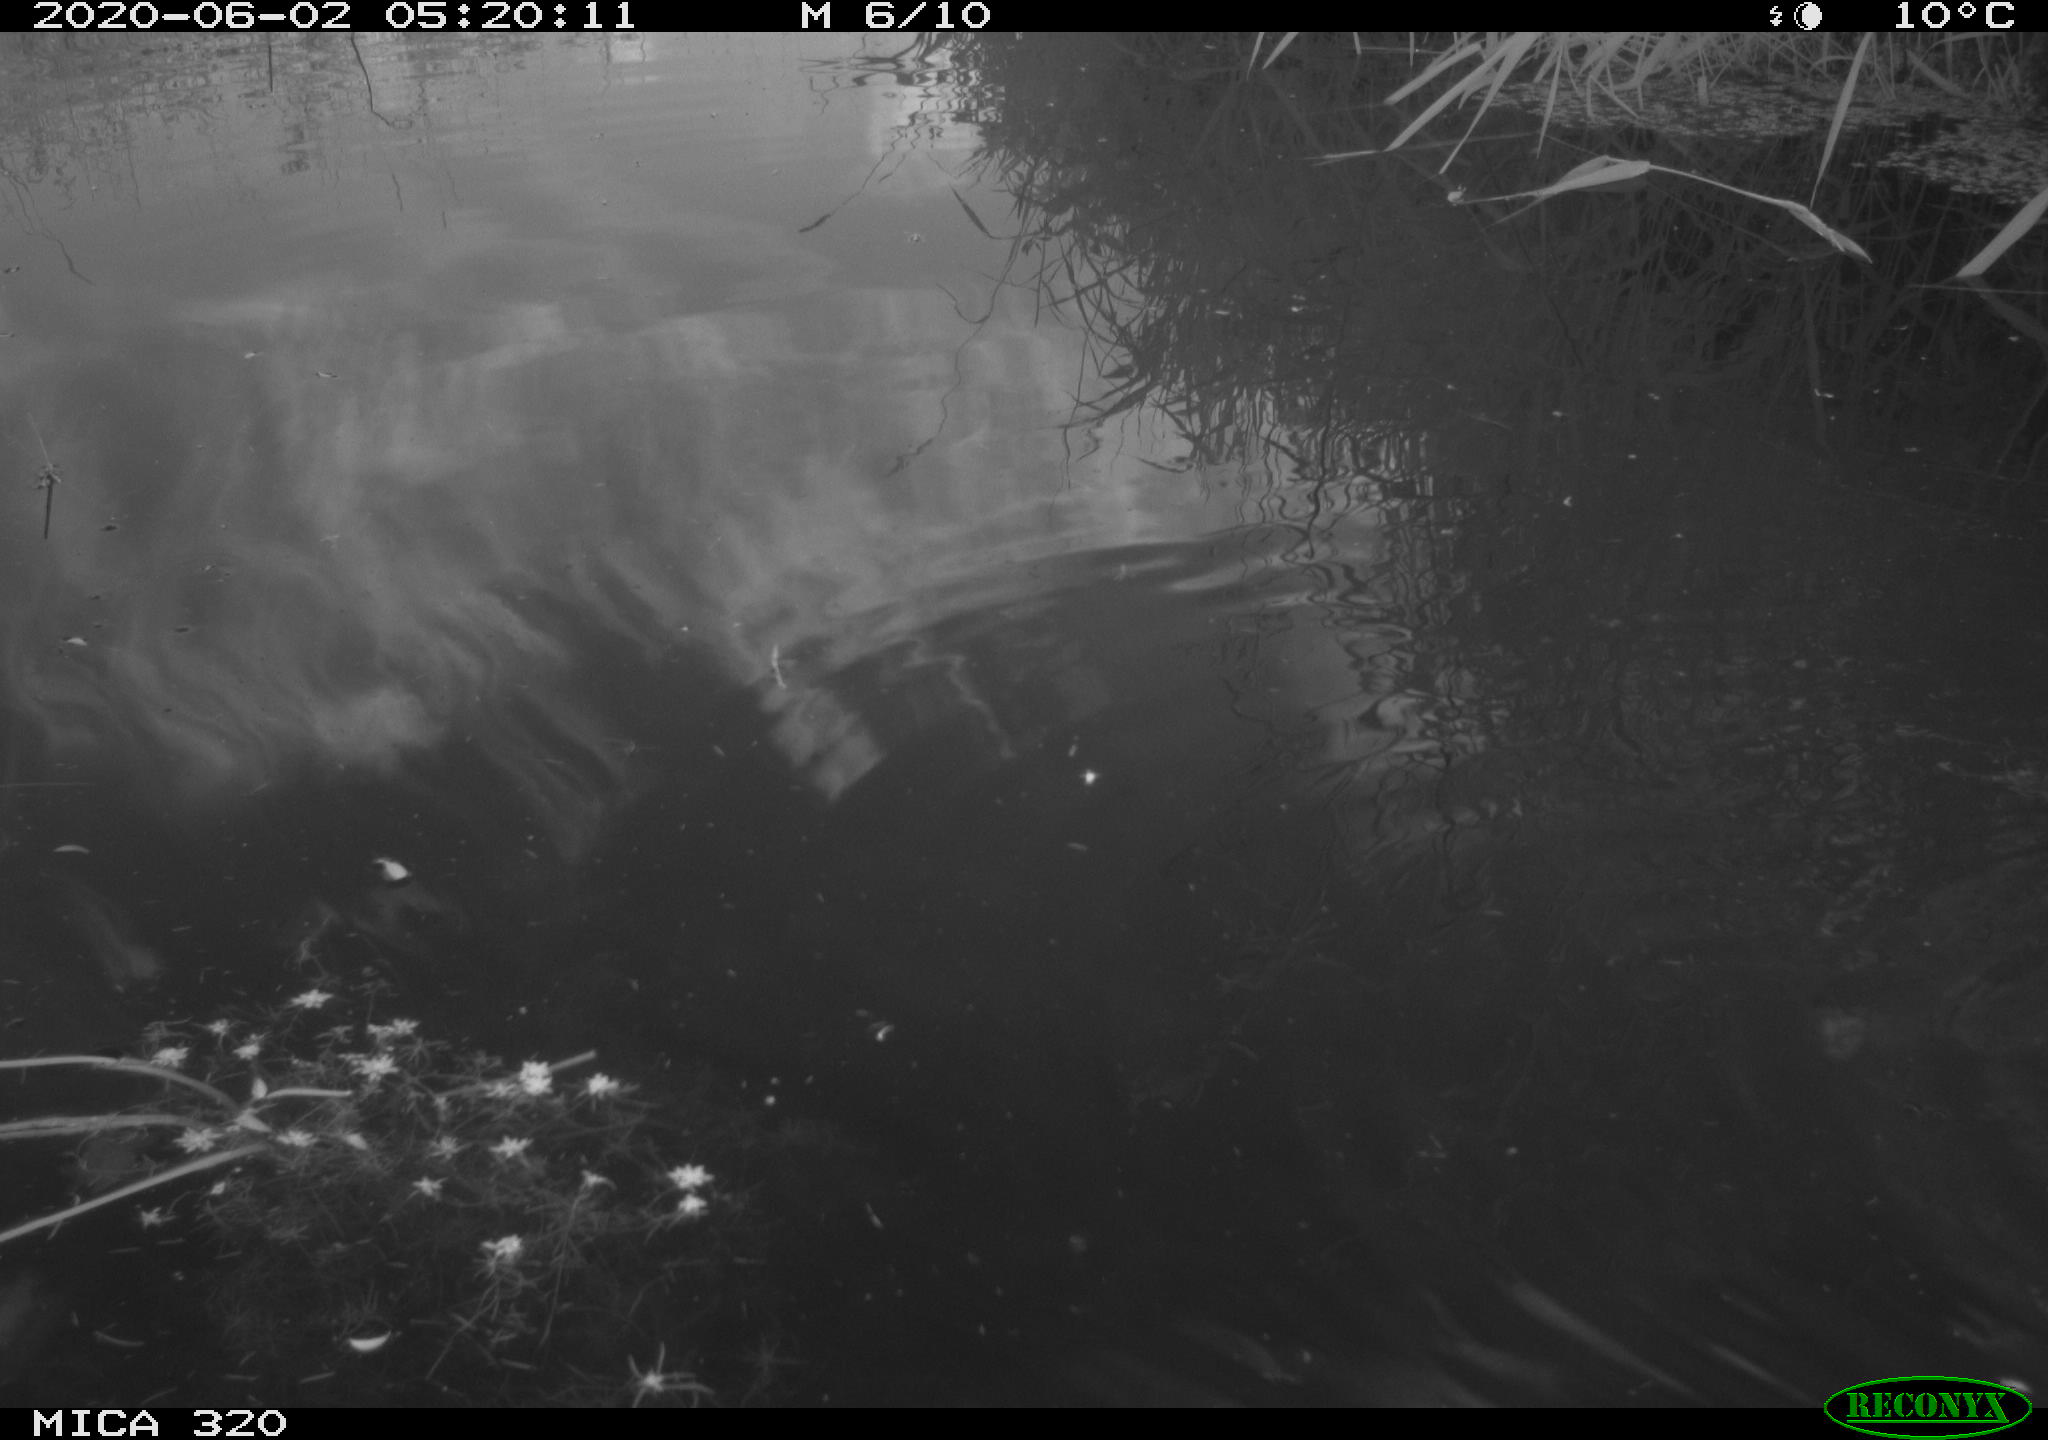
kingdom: Animalia
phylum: Chordata
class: Aves
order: Gruiformes
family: Rallidae
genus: Gallinula
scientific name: Gallinula chloropus
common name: Common moorhen
